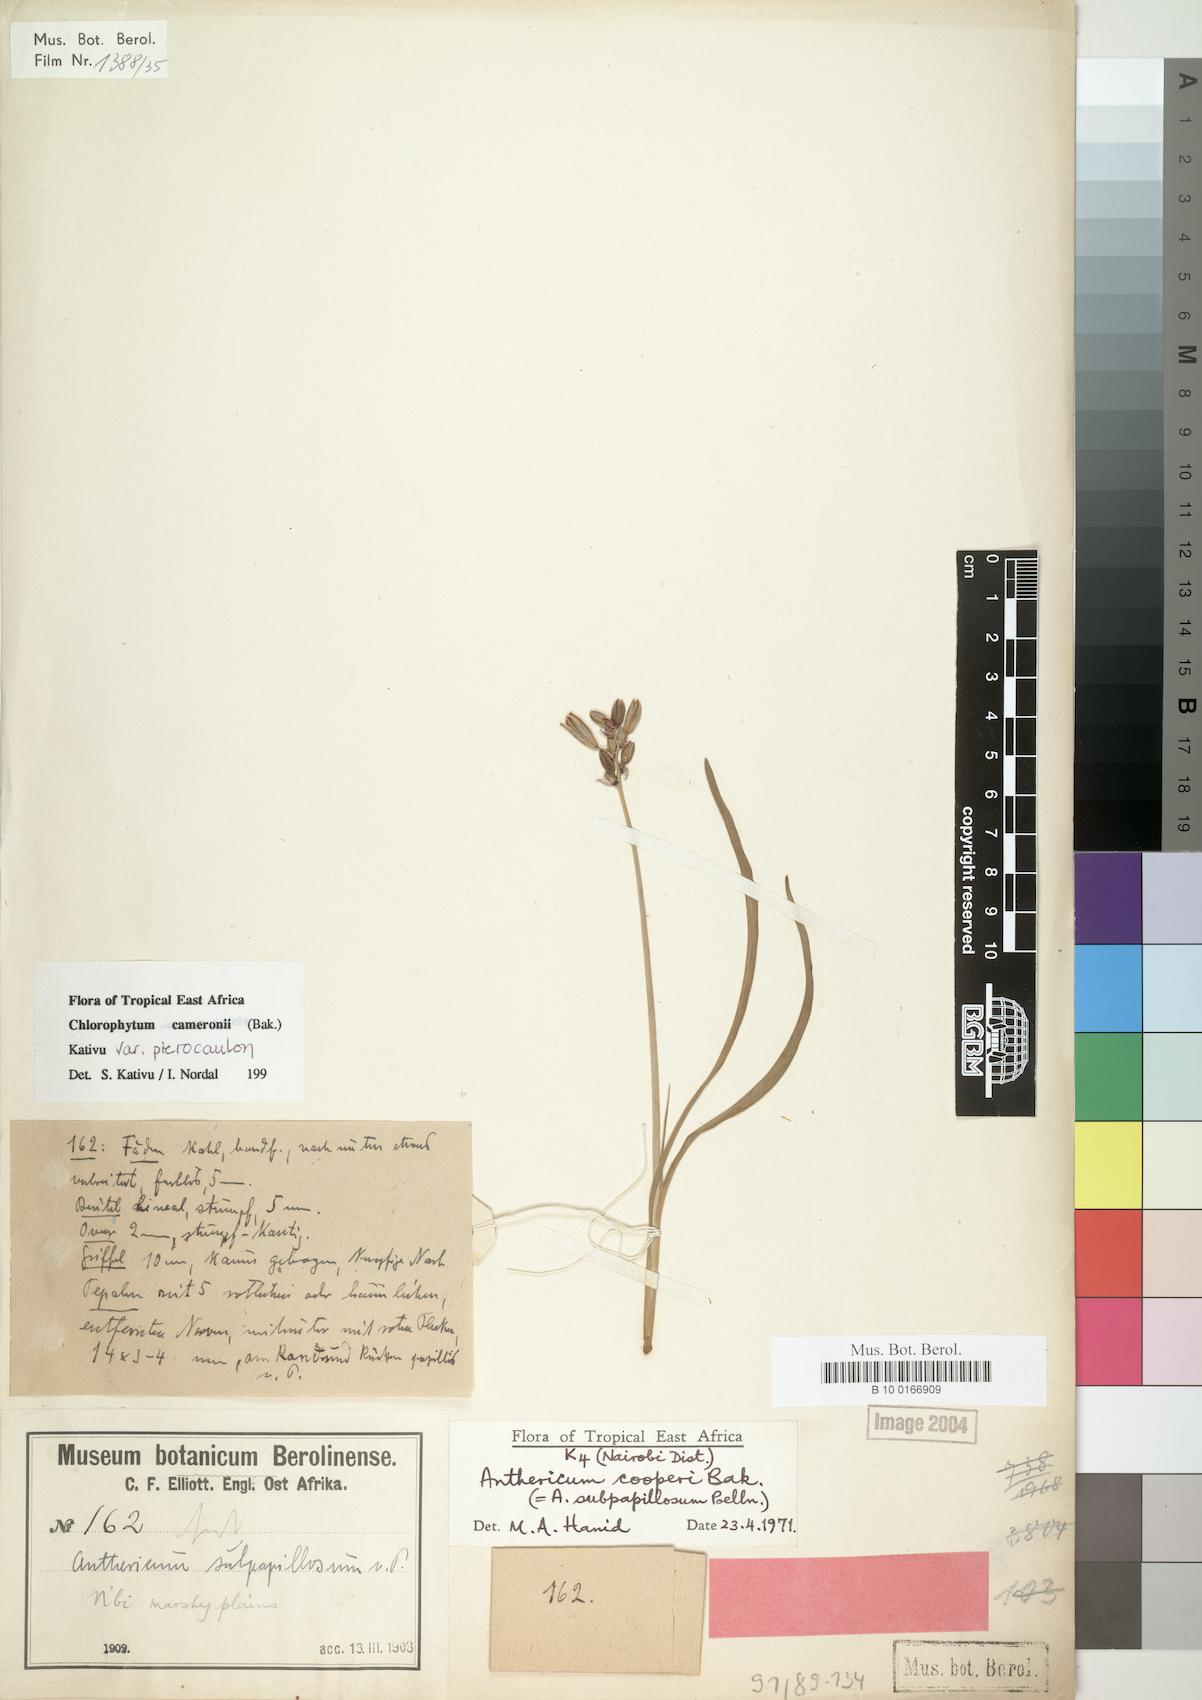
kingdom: Plantae
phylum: Tracheophyta
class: Liliopsida
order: Asparagales
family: Asparagaceae
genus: Chlorophytum
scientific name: Chlorophytum cameronii
